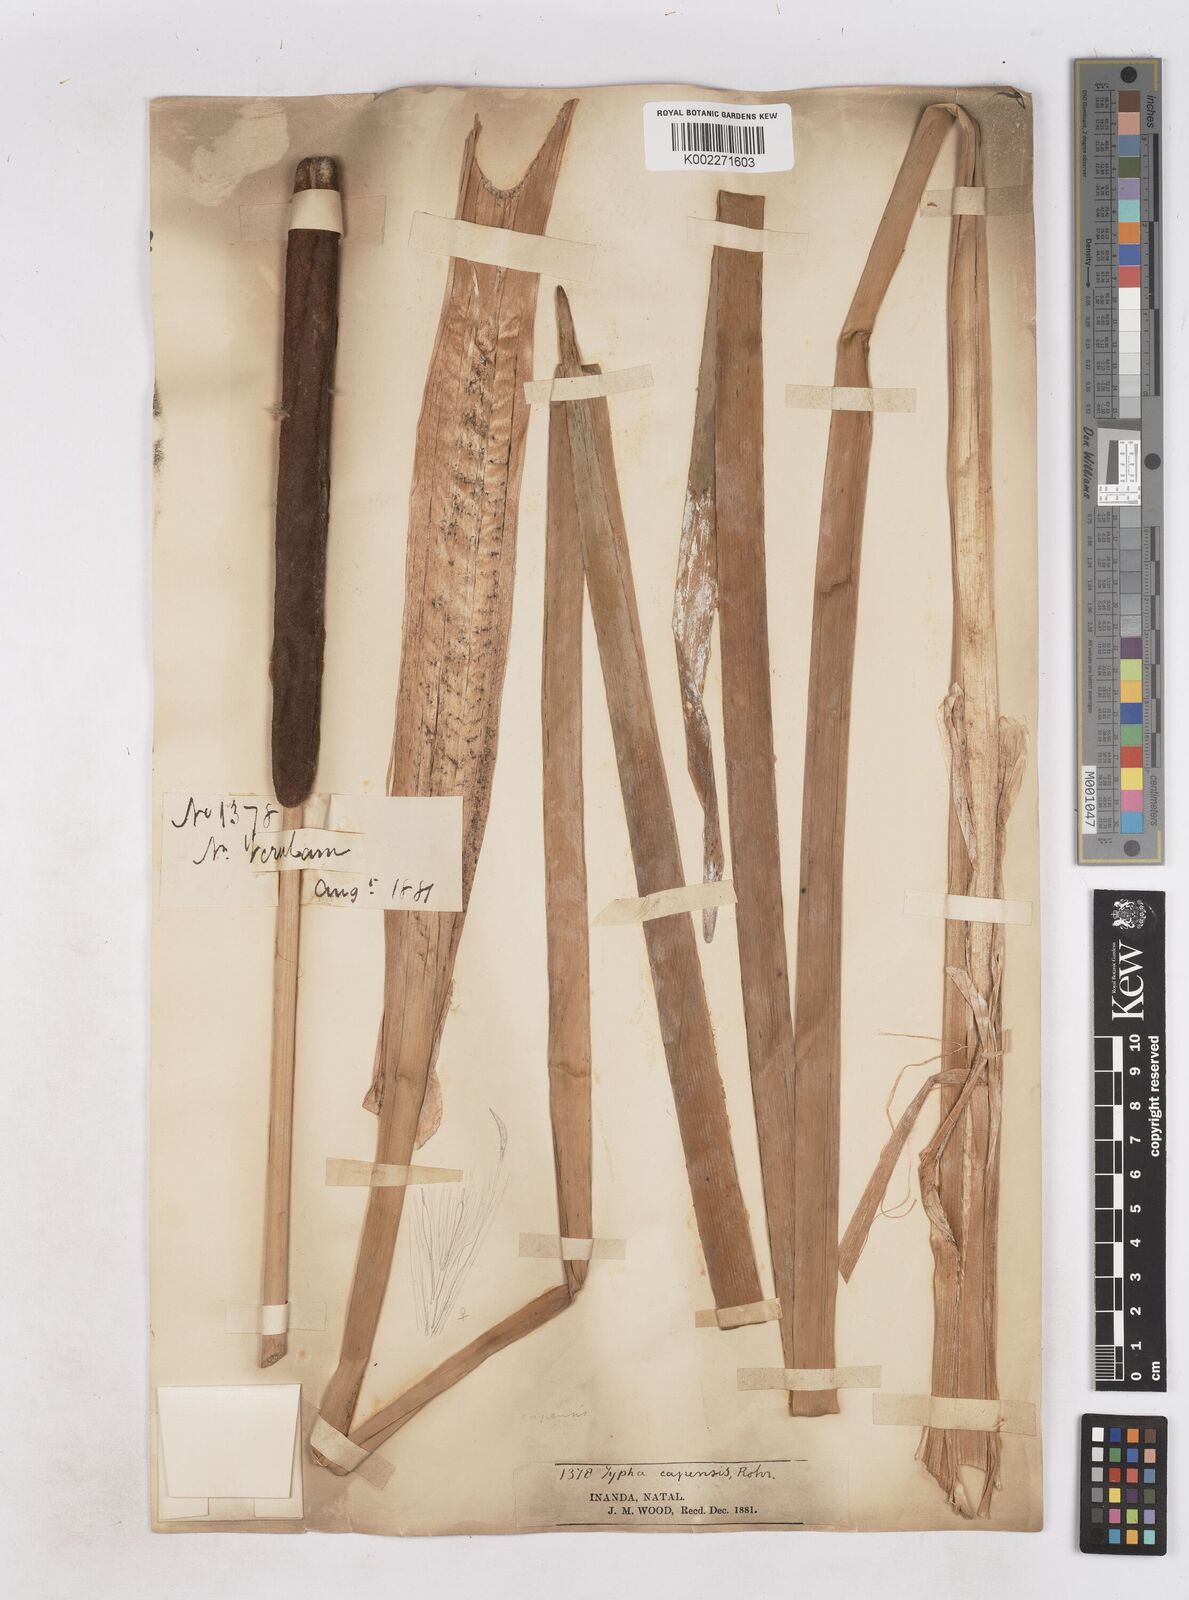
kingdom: Plantae
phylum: Tracheophyta
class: Liliopsida
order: Poales
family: Typhaceae
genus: Typha
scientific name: Typha capensis
